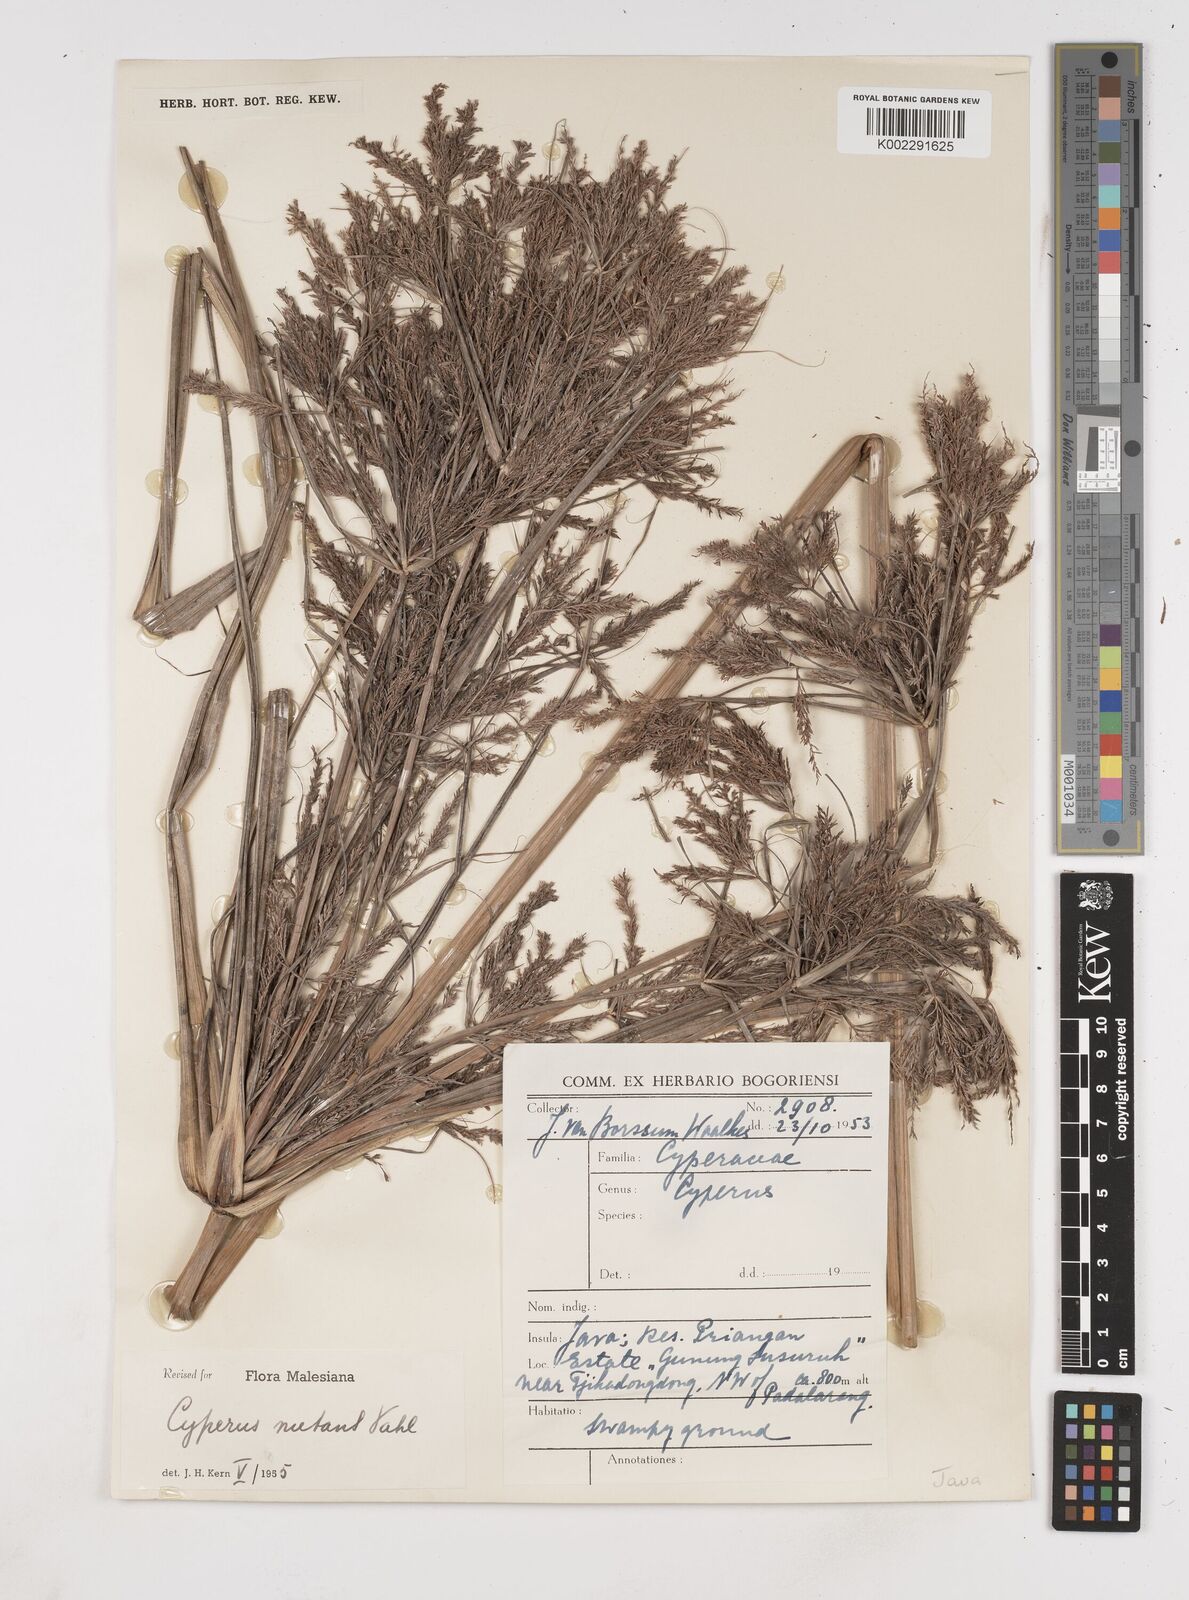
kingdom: Plantae
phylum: Tracheophyta
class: Liliopsida
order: Poales
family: Cyperaceae
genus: Cyperus
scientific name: Cyperus nutans
